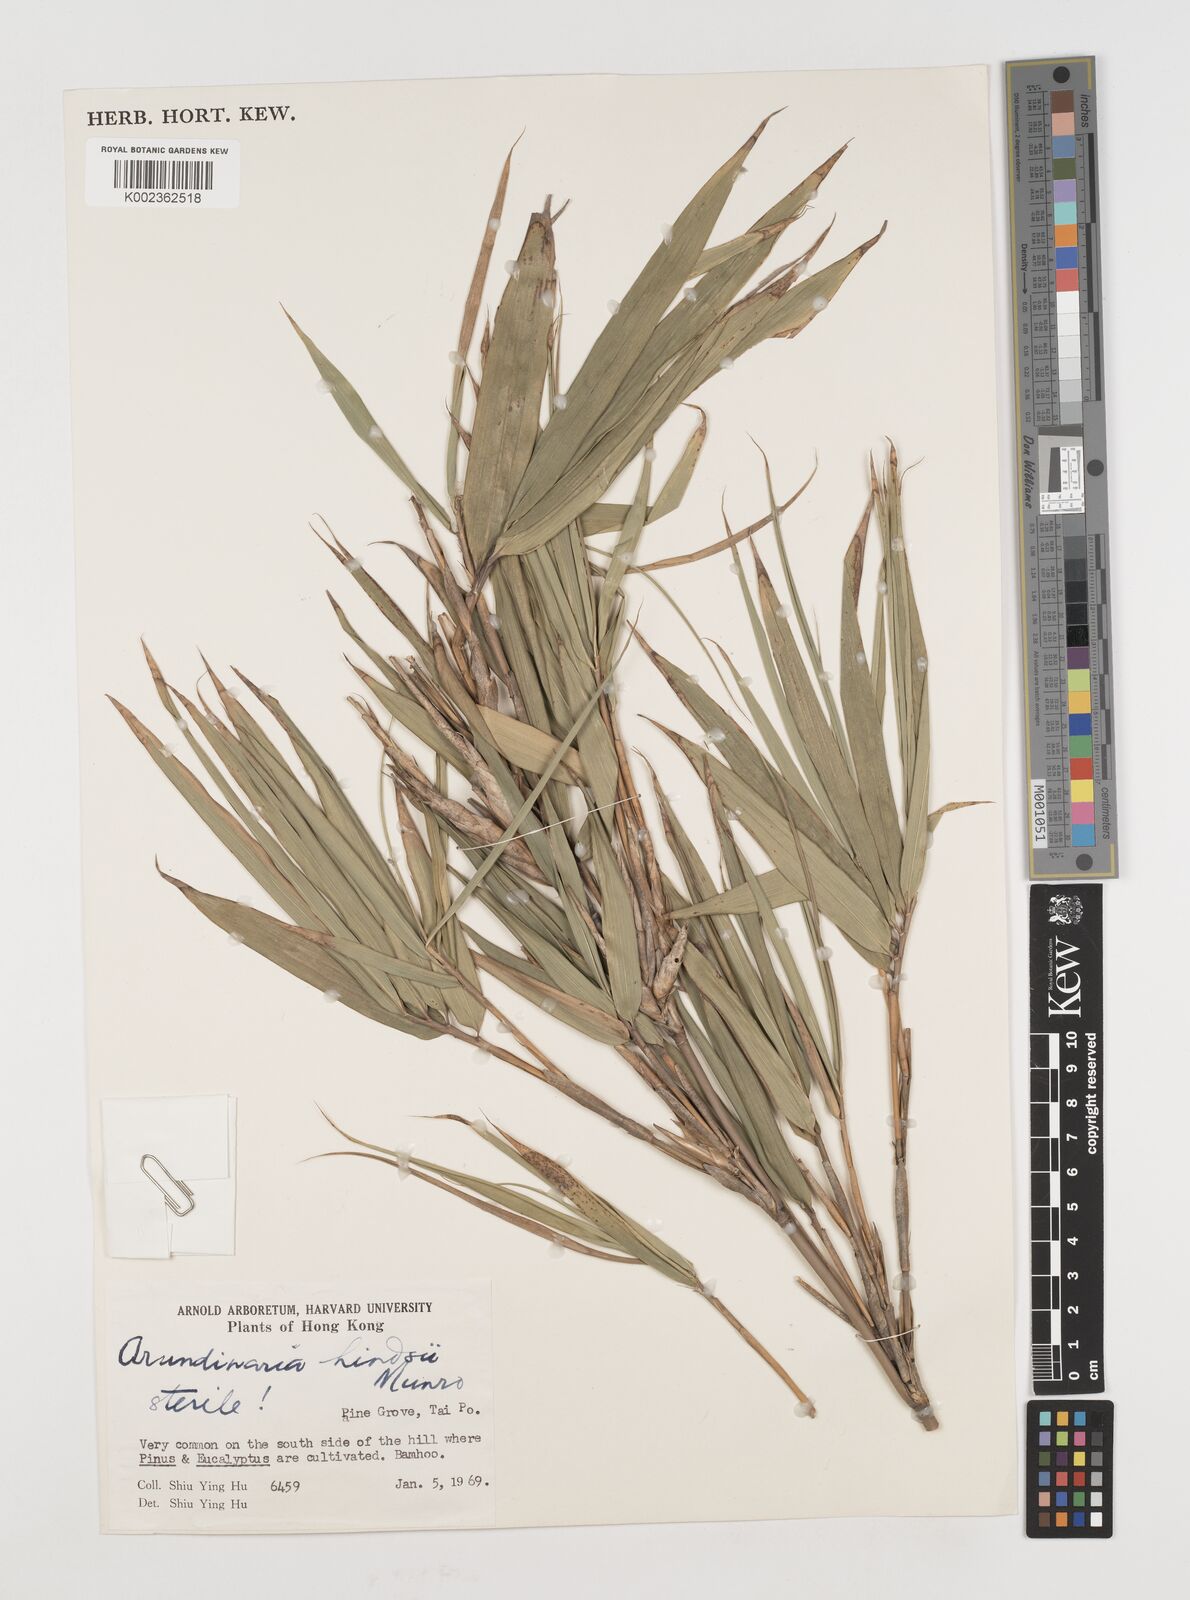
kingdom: Plantae
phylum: Tracheophyta
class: Liliopsida
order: Poales
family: Poaceae
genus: Pseudosasa
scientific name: Pseudosasa hindsii
